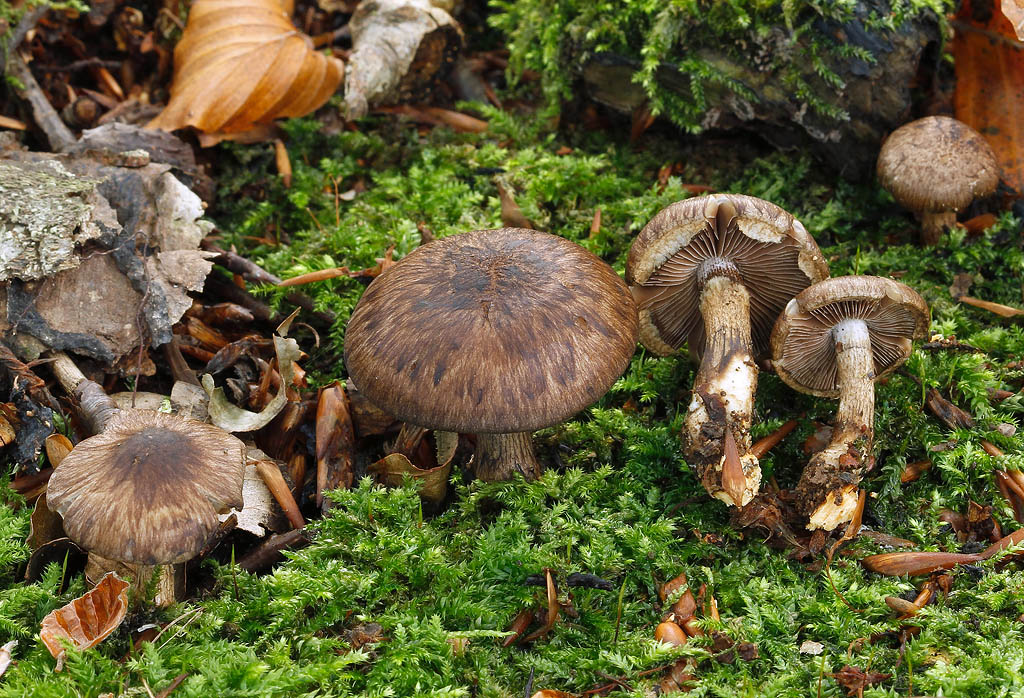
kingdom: Fungi
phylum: Basidiomycota
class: Agaricomycetes
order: Agaricales
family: Psathyrellaceae
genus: Psathyrella
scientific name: Psathyrella maculata
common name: sortskællet mørkhat
